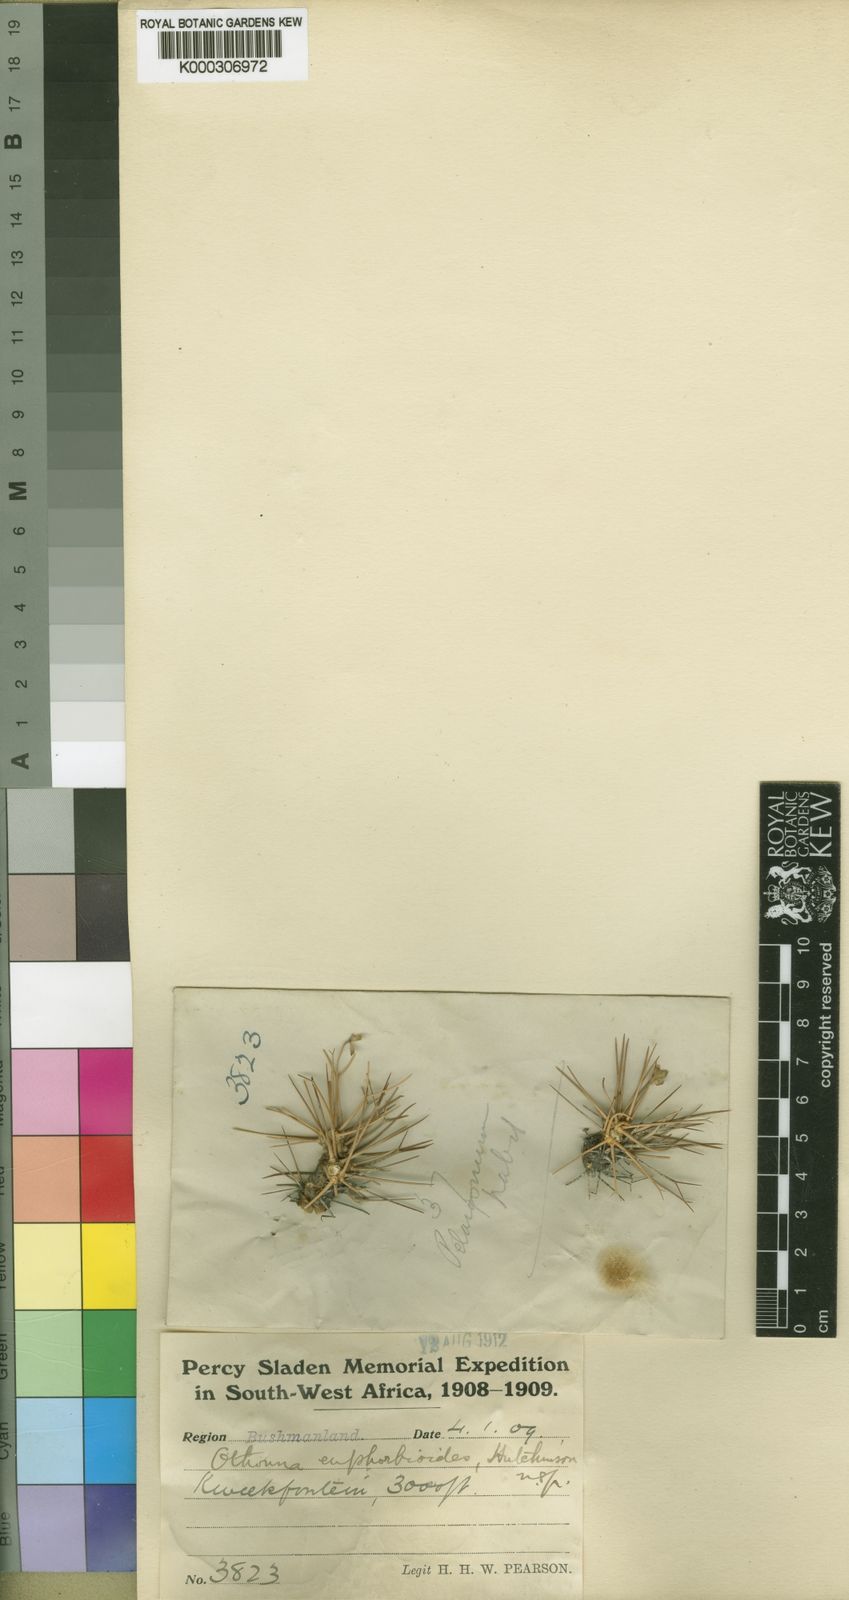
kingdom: Plantae
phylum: Tracheophyta
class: Magnoliopsida
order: Asterales
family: Asteraceae
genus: Othonna
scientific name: Othonna euphorbioides
